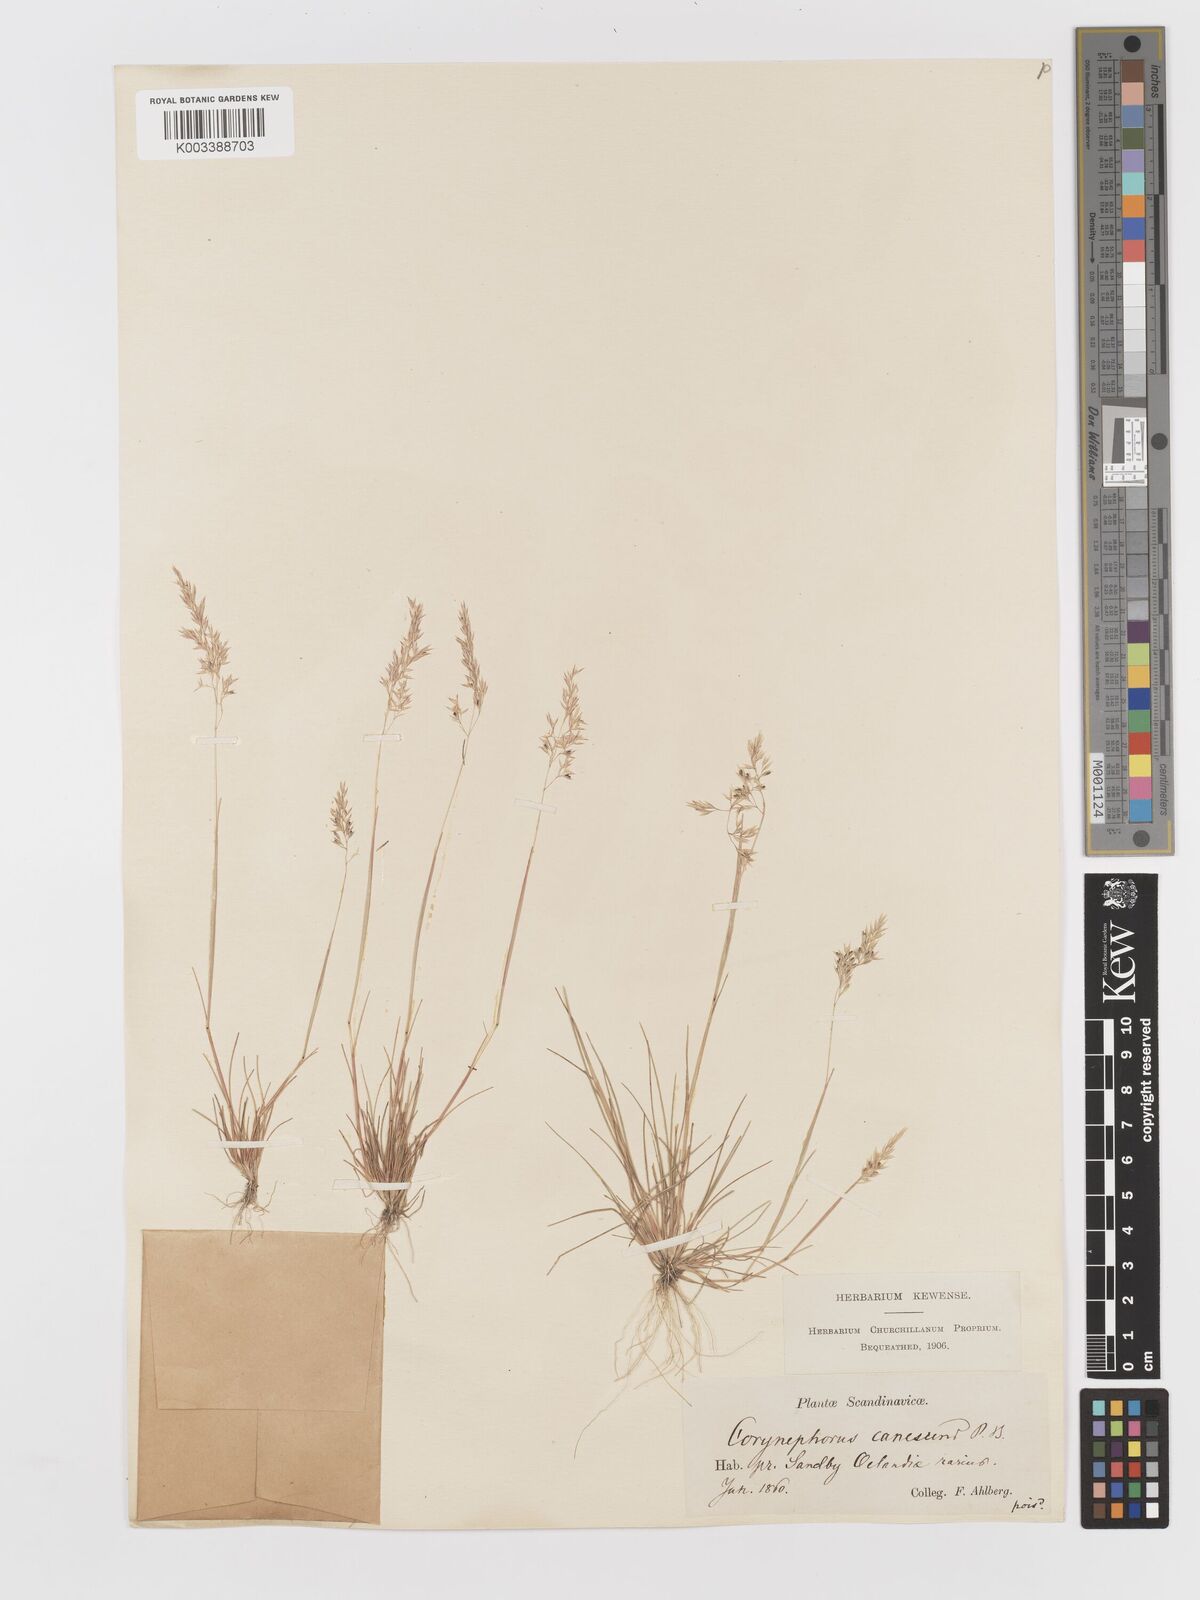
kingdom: Plantae
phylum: Tracheophyta
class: Liliopsida
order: Poales
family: Poaceae
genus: Corynephorus
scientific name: Corynephorus canescens
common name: Grey hair-grass
